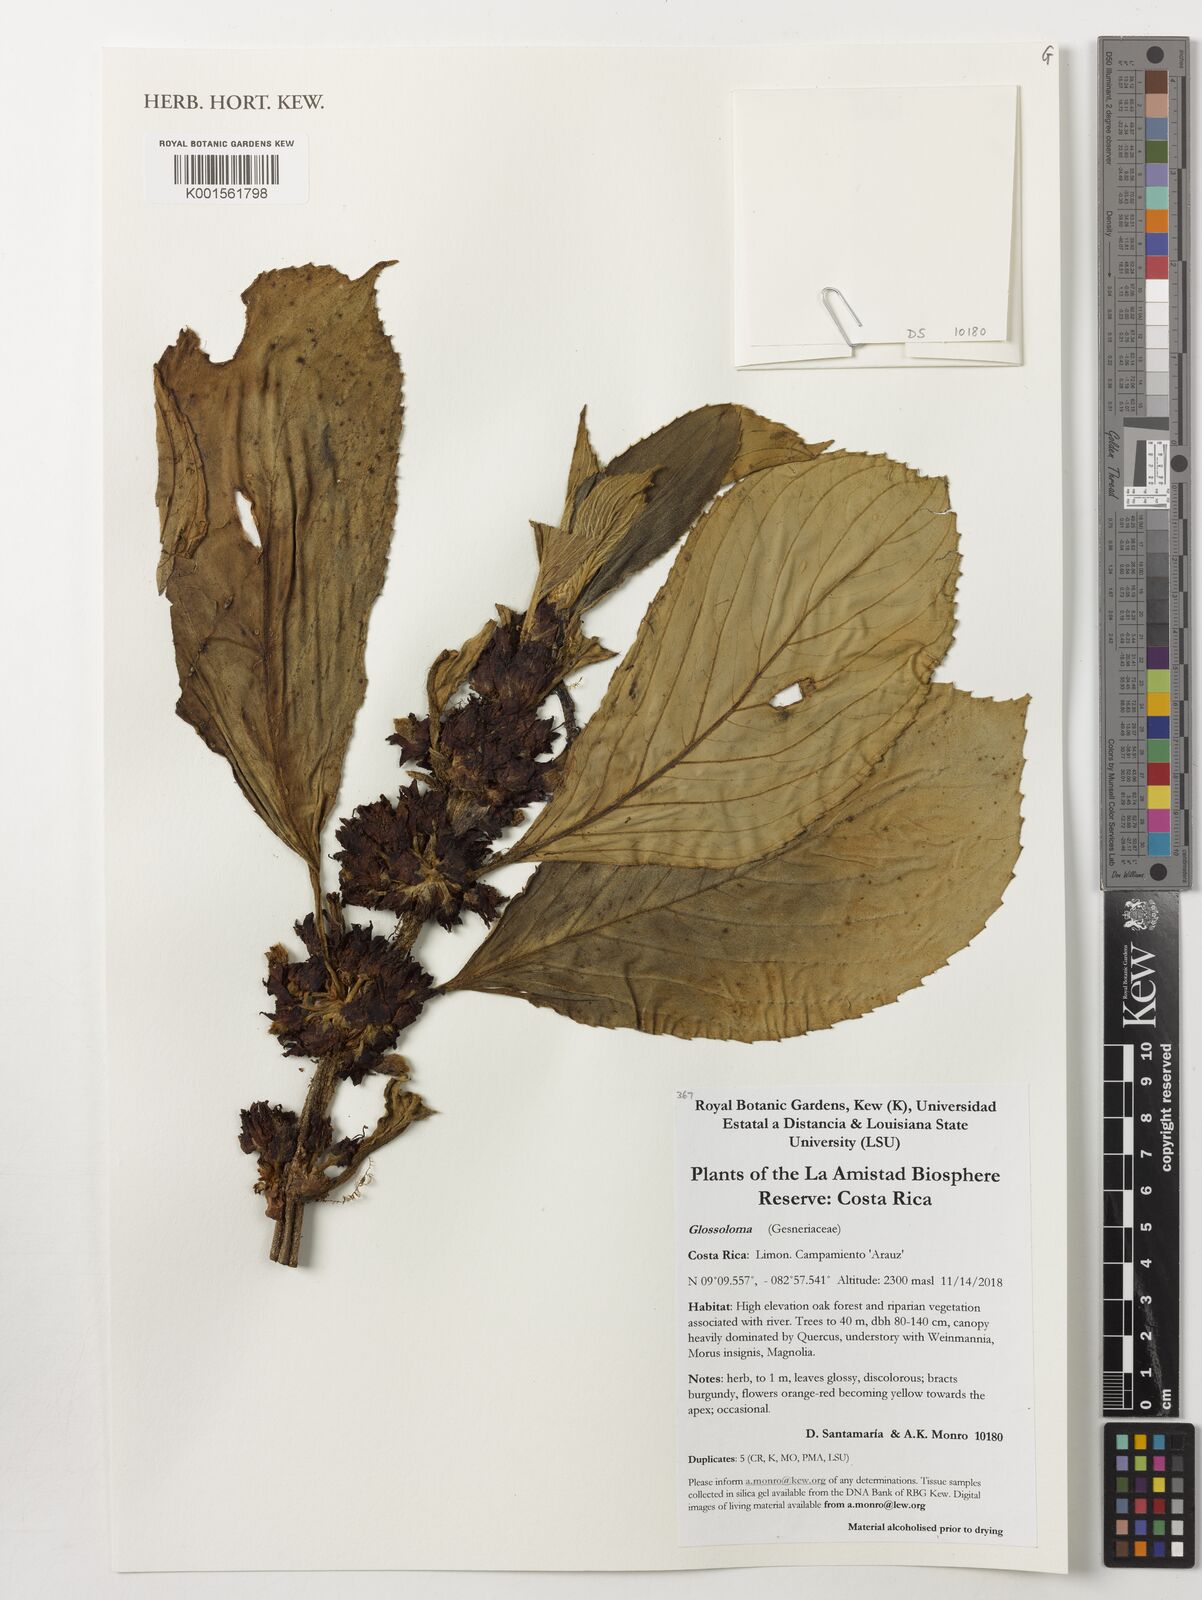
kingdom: Plantae
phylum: Tracheophyta
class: Magnoliopsida
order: Lamiales
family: Gesneriaceae
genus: Glossoloma
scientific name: Glossoloma
